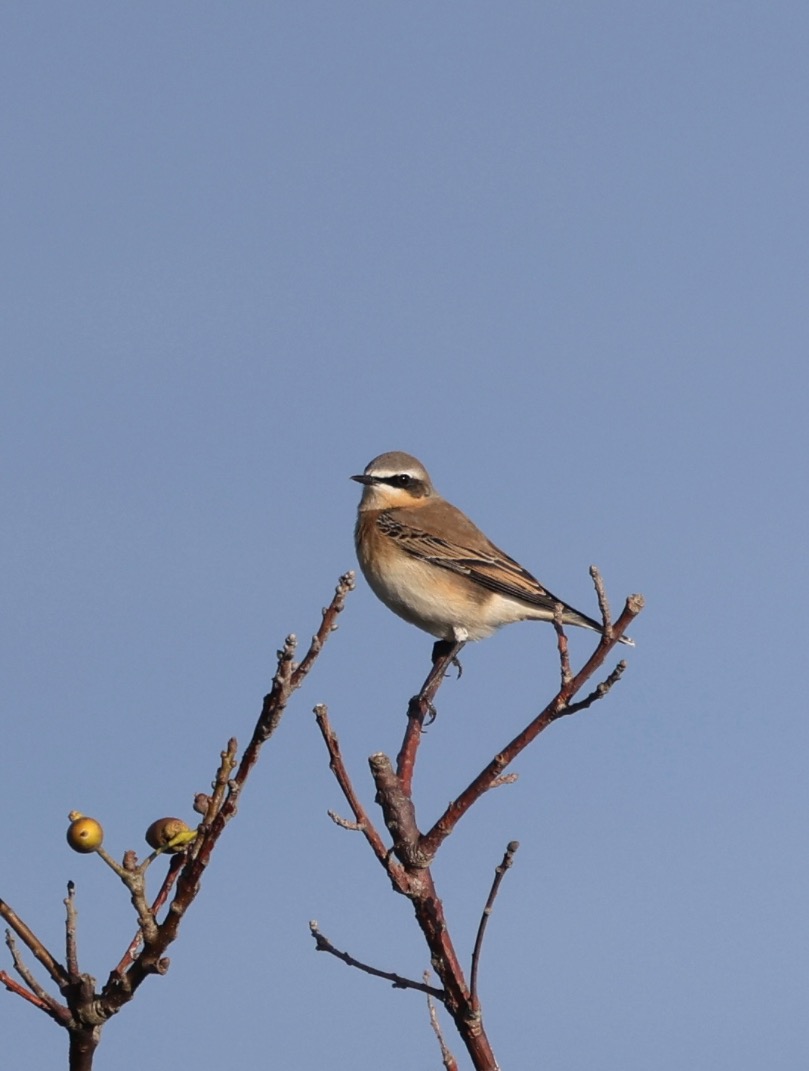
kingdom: Animalia
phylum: Chordata
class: Aves
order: Passeriformes
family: Muscicapidae
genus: Oenanthe
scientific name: Oenanthe oenanthe
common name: Stenpikker
